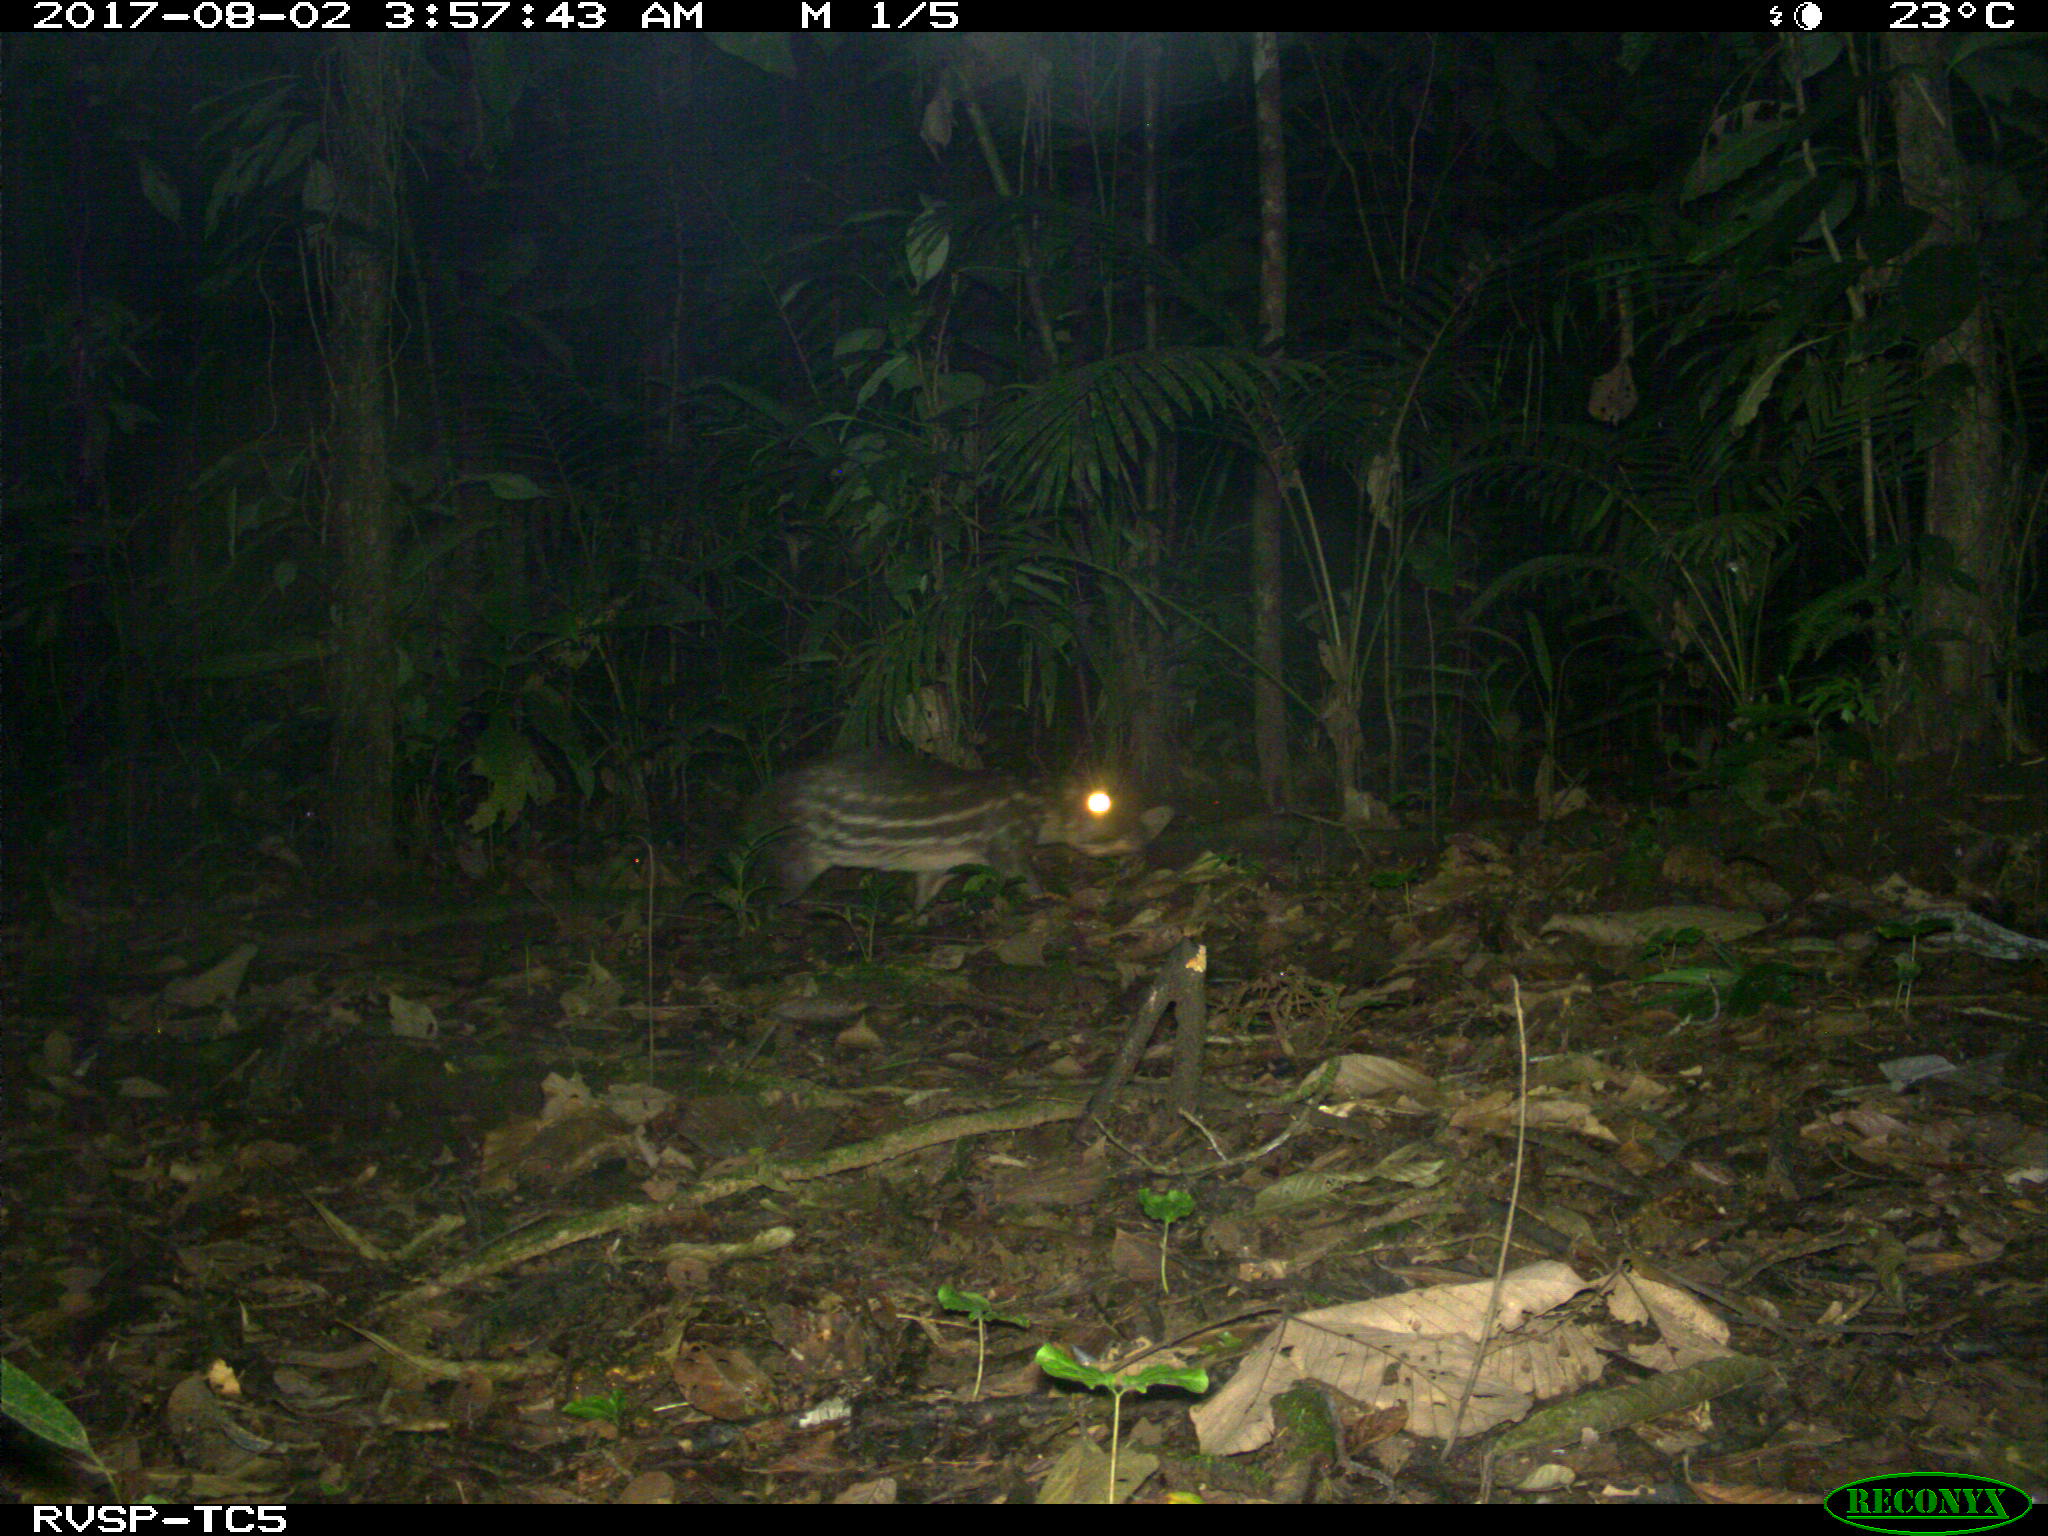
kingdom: Animalia
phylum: Chordata
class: Mammalia
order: Rodentia
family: Cuniculidae
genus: Cuniculus
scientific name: Cuniculus paca
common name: Lowland paca
